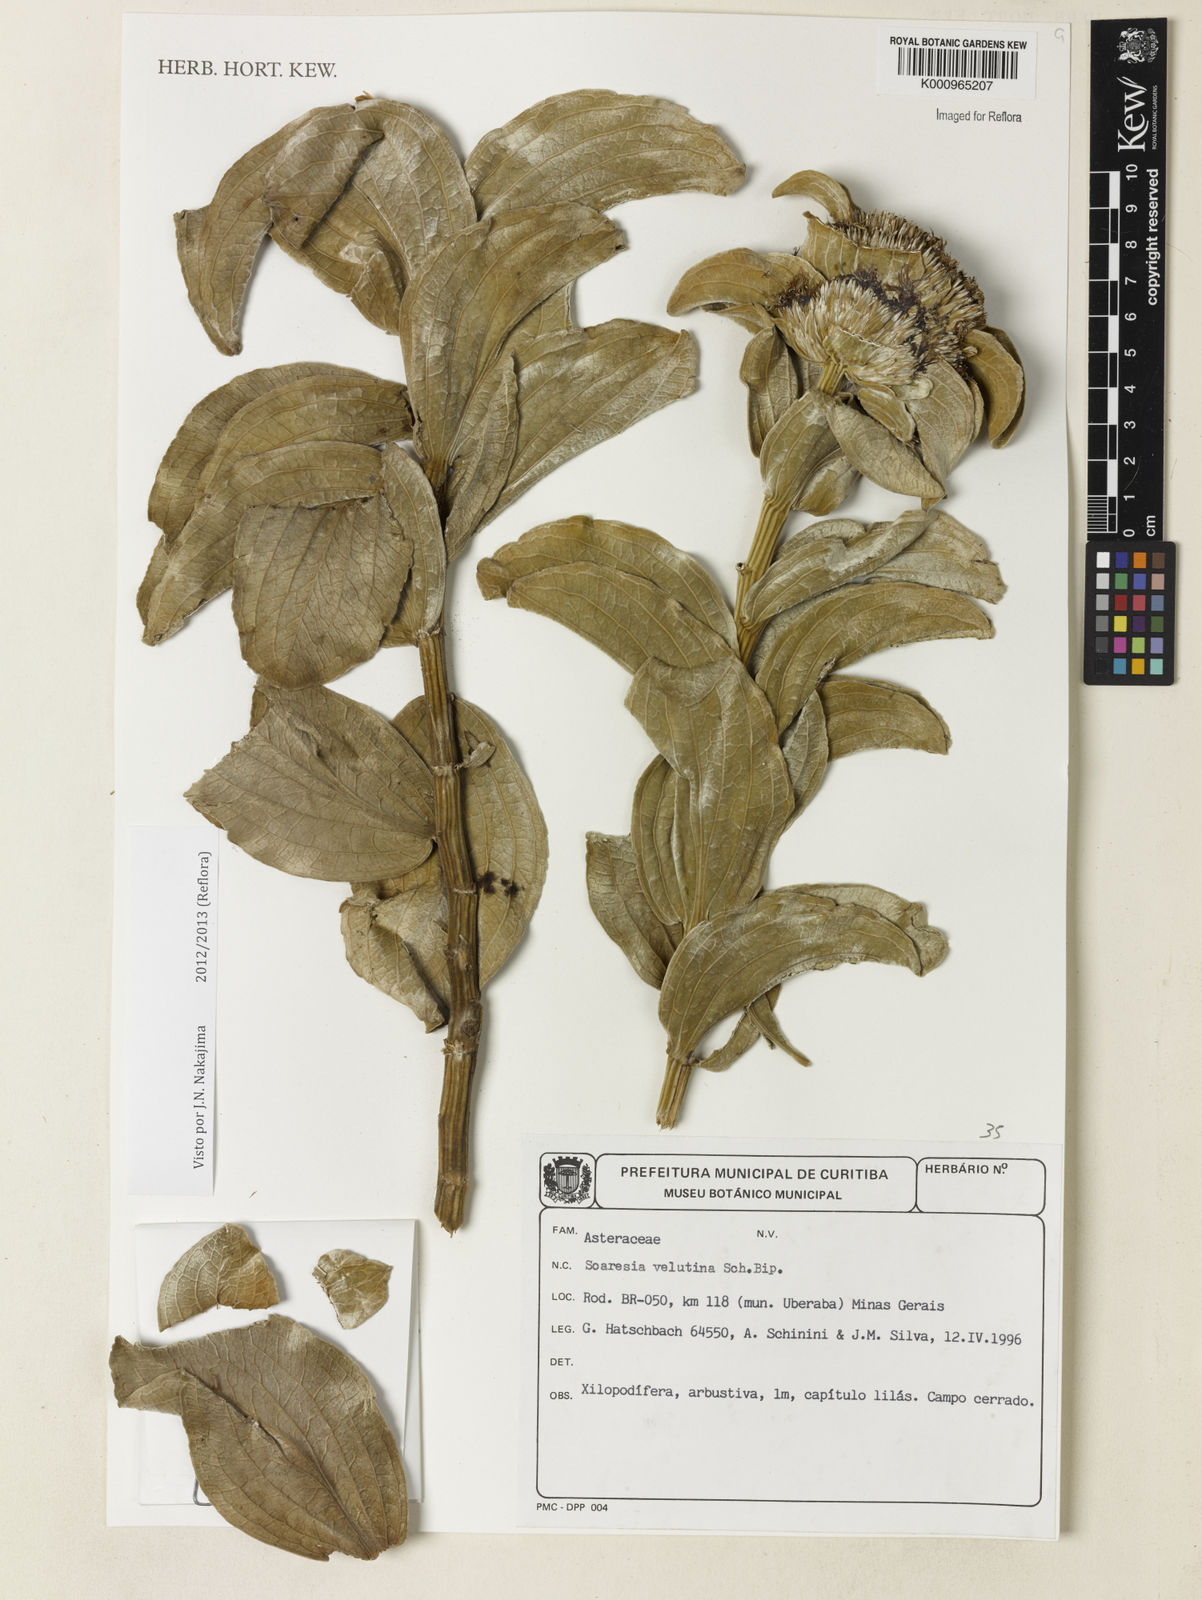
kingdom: Plantae
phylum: Tracheophyta
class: Magnoliopsida
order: Asterales
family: Asteraceae
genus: Soaresia
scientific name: Soaresia velutina
